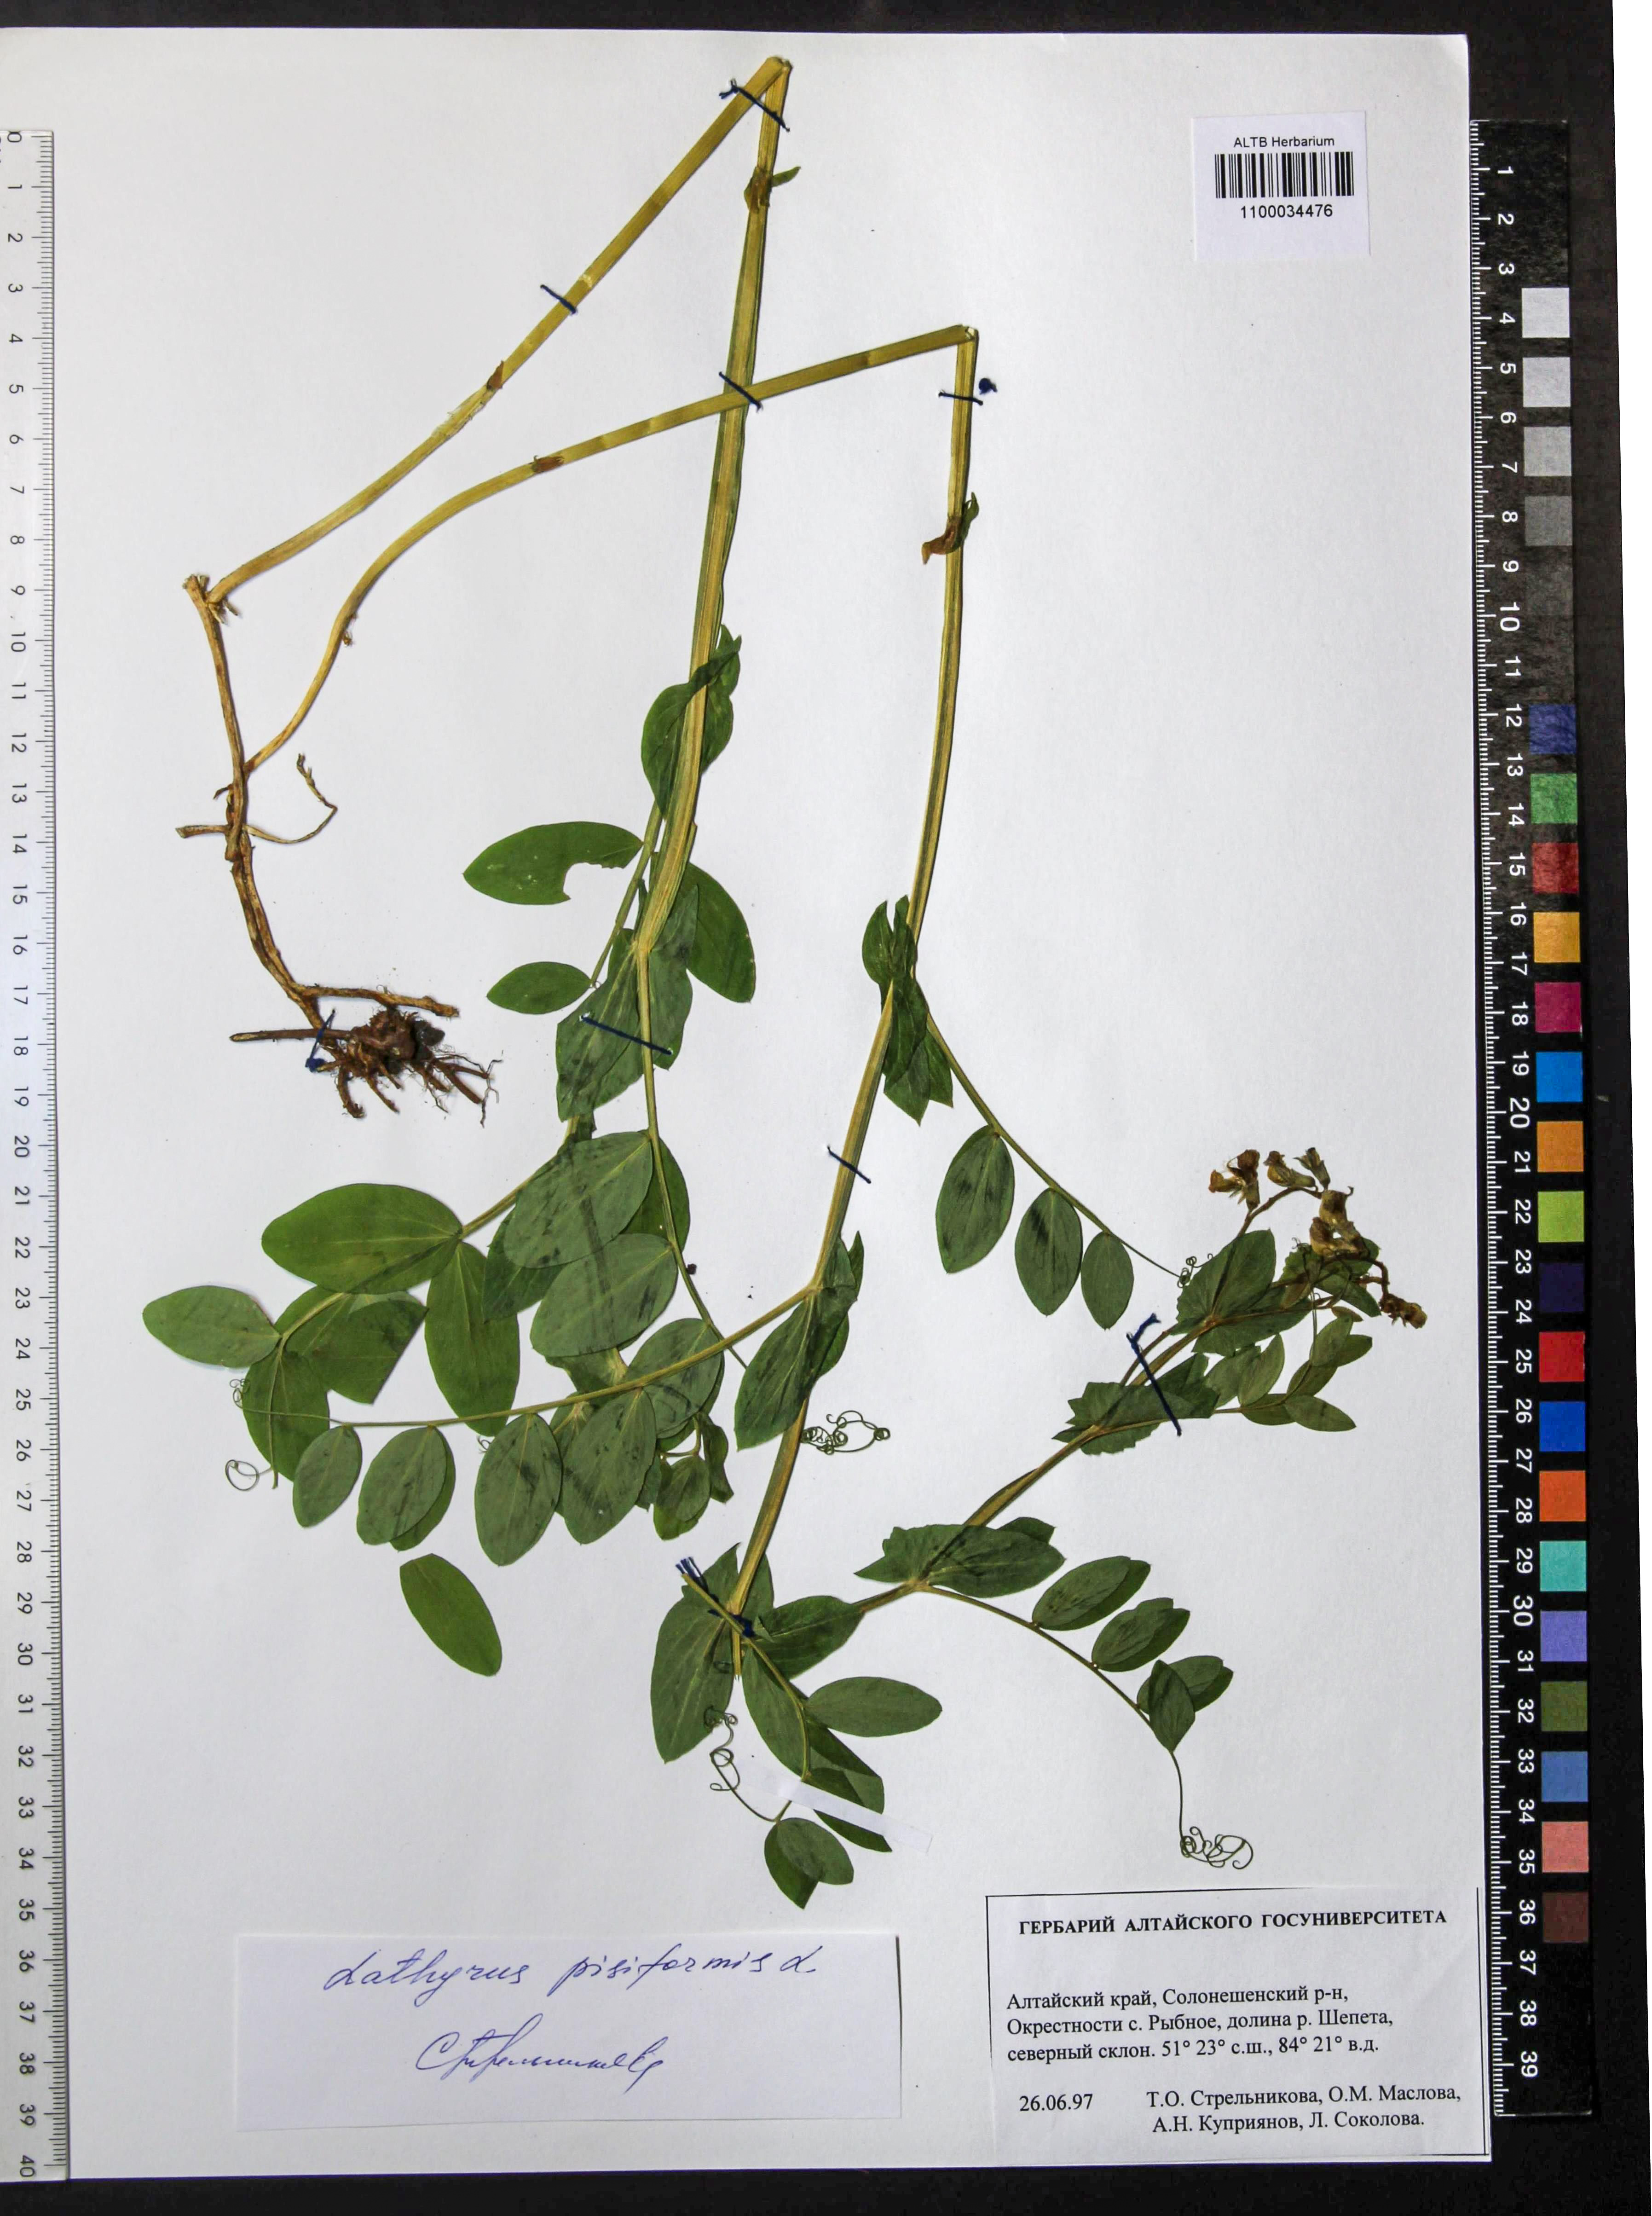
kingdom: Plantae
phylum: Tracheophyta
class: Magnoliopsida
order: Fabales
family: Fabaceae
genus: Lathyrus
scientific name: Lathyrus pisiformis
